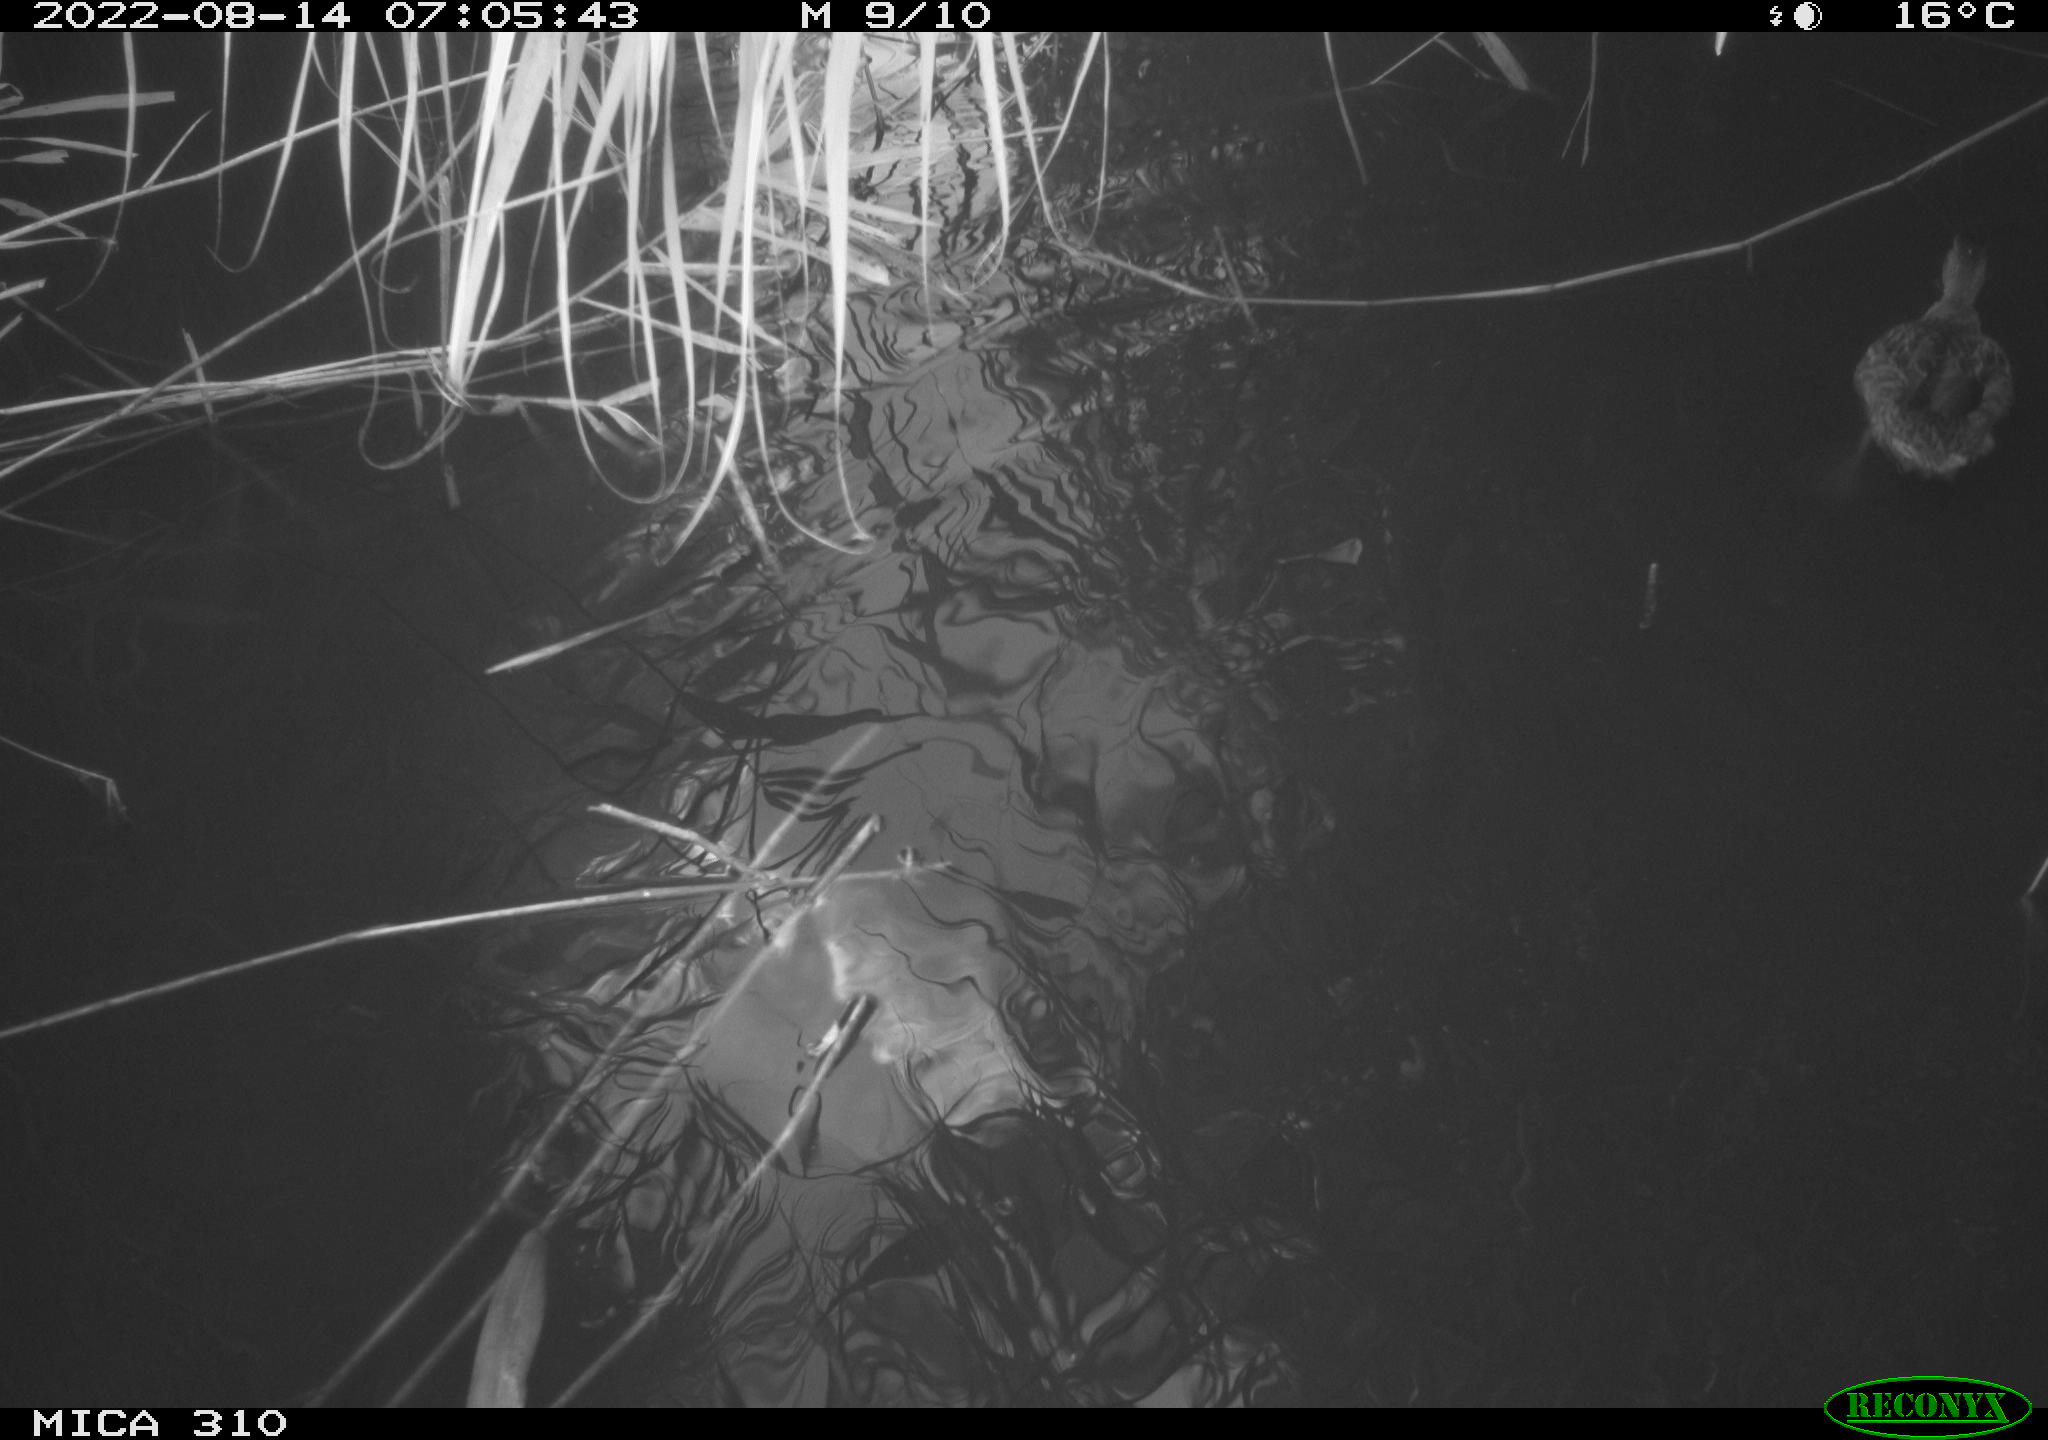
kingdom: Animalia
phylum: Chordata
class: Aves
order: Gruiformes
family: Rallidae
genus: Fulica
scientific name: Fulica atra
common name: Eurasian coot
